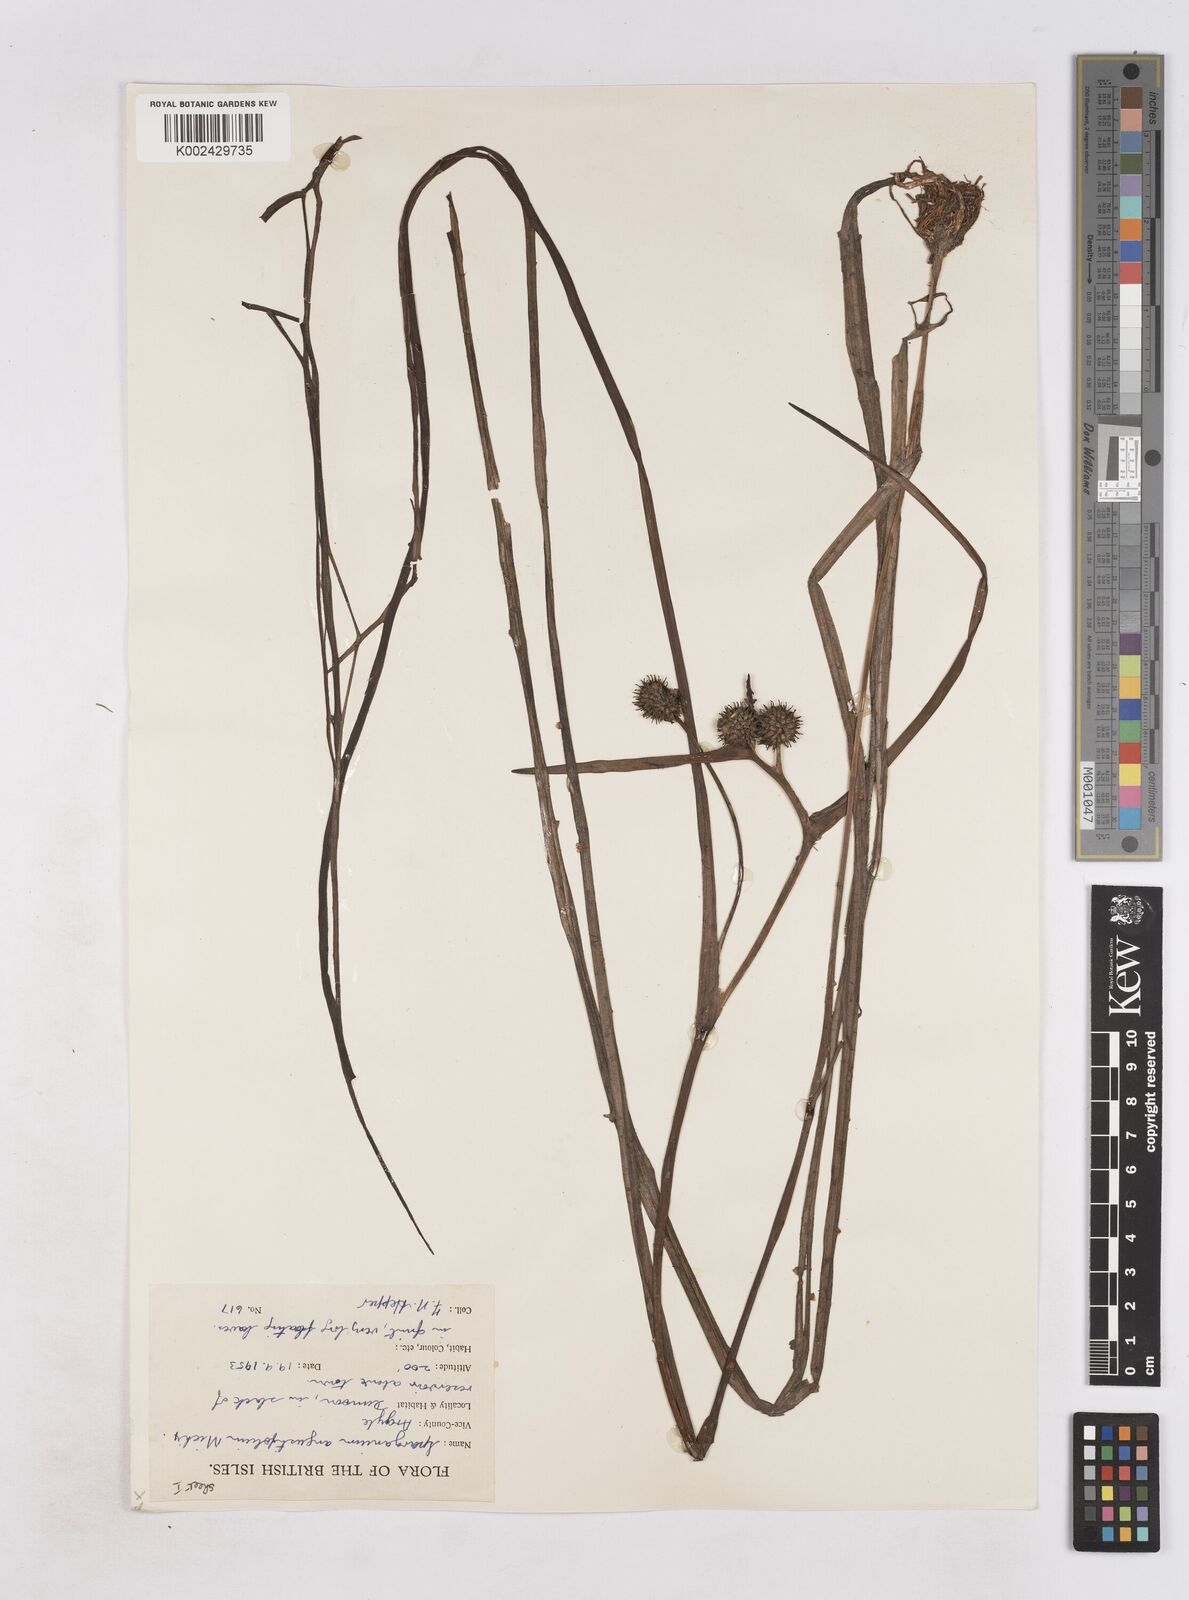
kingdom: Plantae
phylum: Tracheophyta
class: Liliopsida
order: Poales
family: Typhaceae
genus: Sparganium
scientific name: Sparganium angustifolium
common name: Floating bur-reed
